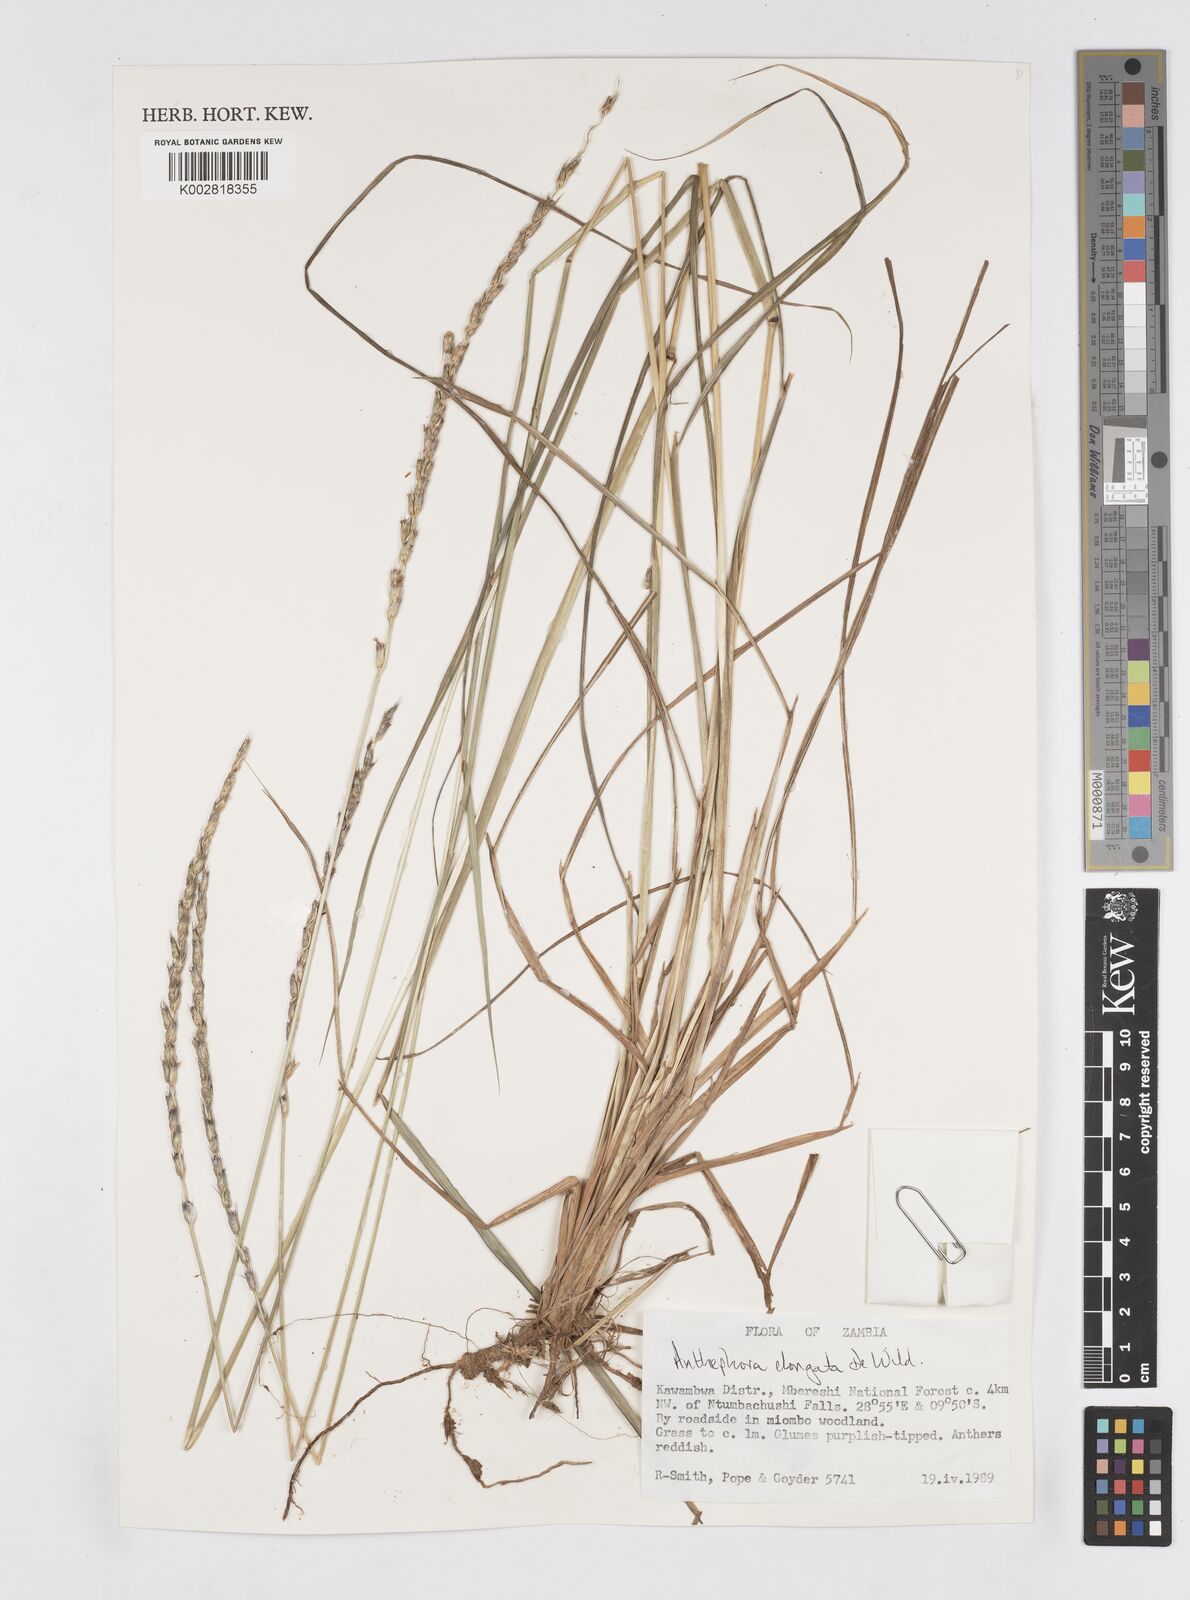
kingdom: Plantae
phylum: Tracheophyta
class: Liliopsida
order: Poales
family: Poaceae
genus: Anthephora
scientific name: Anthephora elongata
